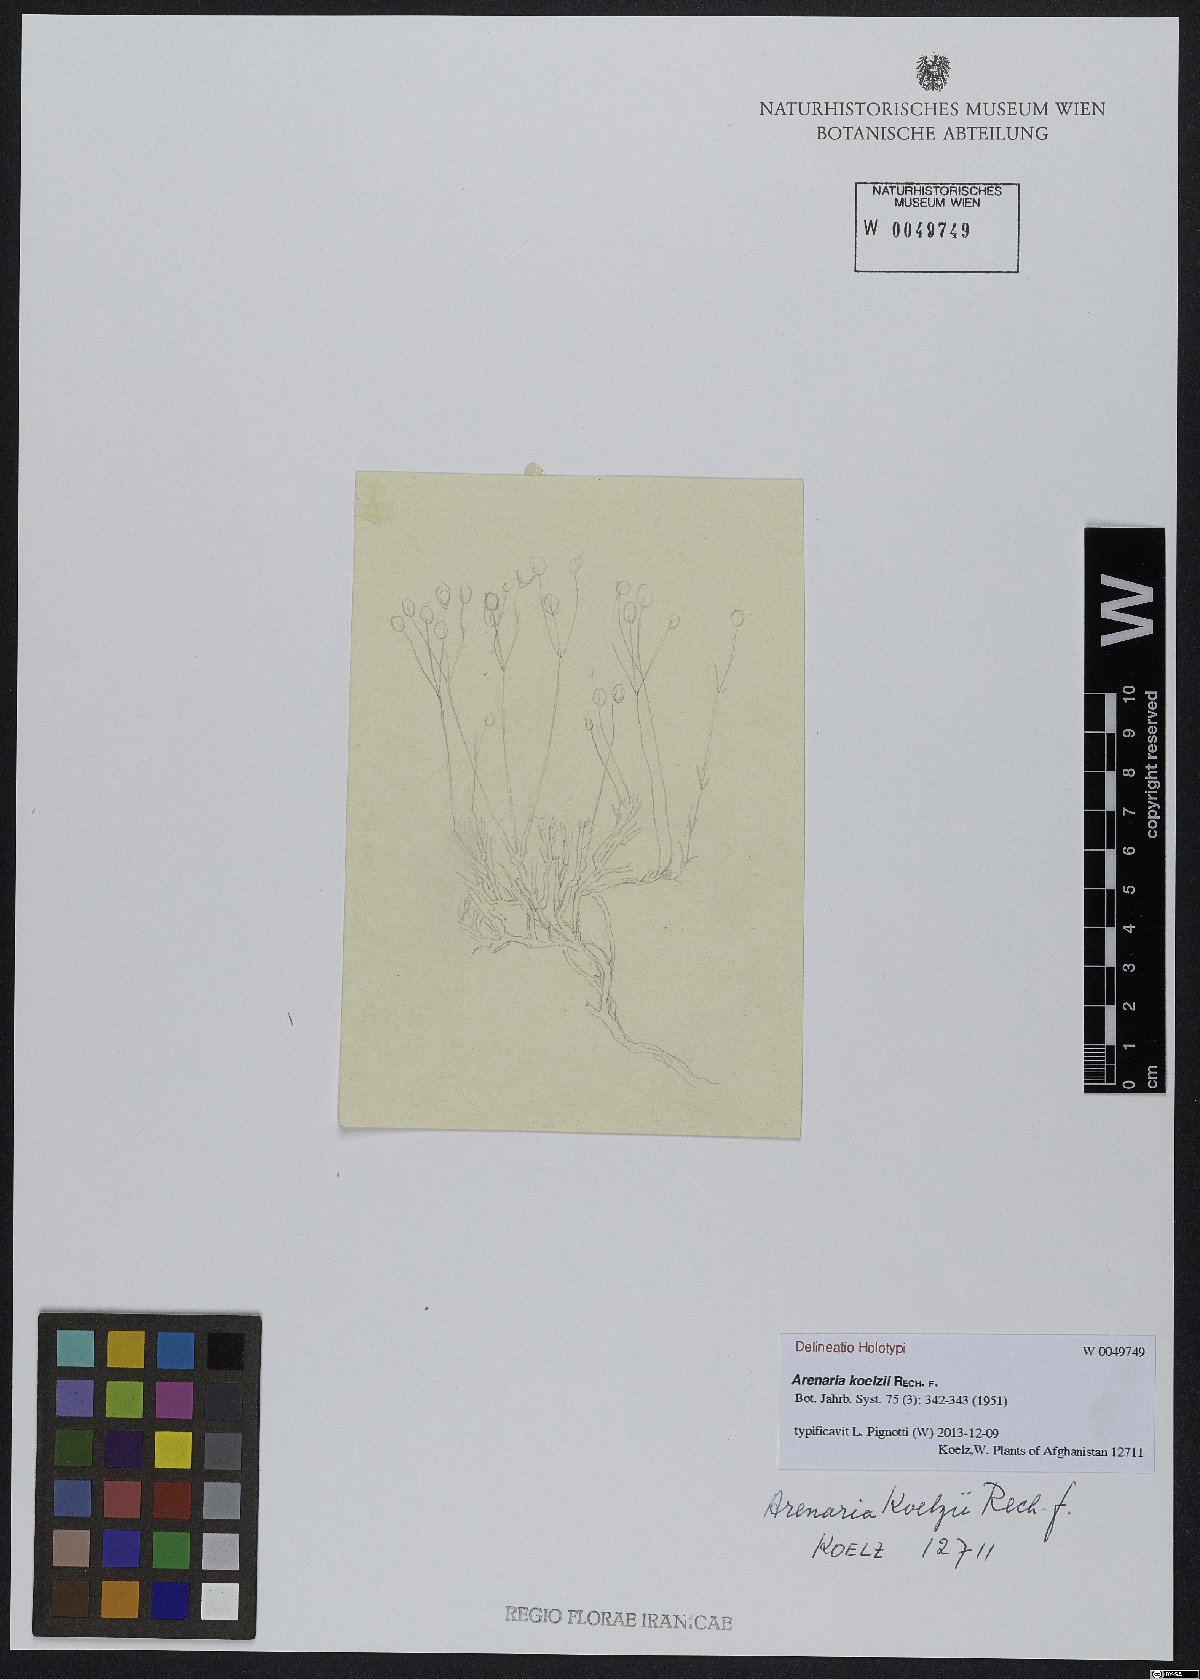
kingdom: Plantae
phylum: Tracheophyta
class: Magnoliopsida
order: Caryophyllales
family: Caryophyllaceae
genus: Eremogone
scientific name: Eremogone koelzii
